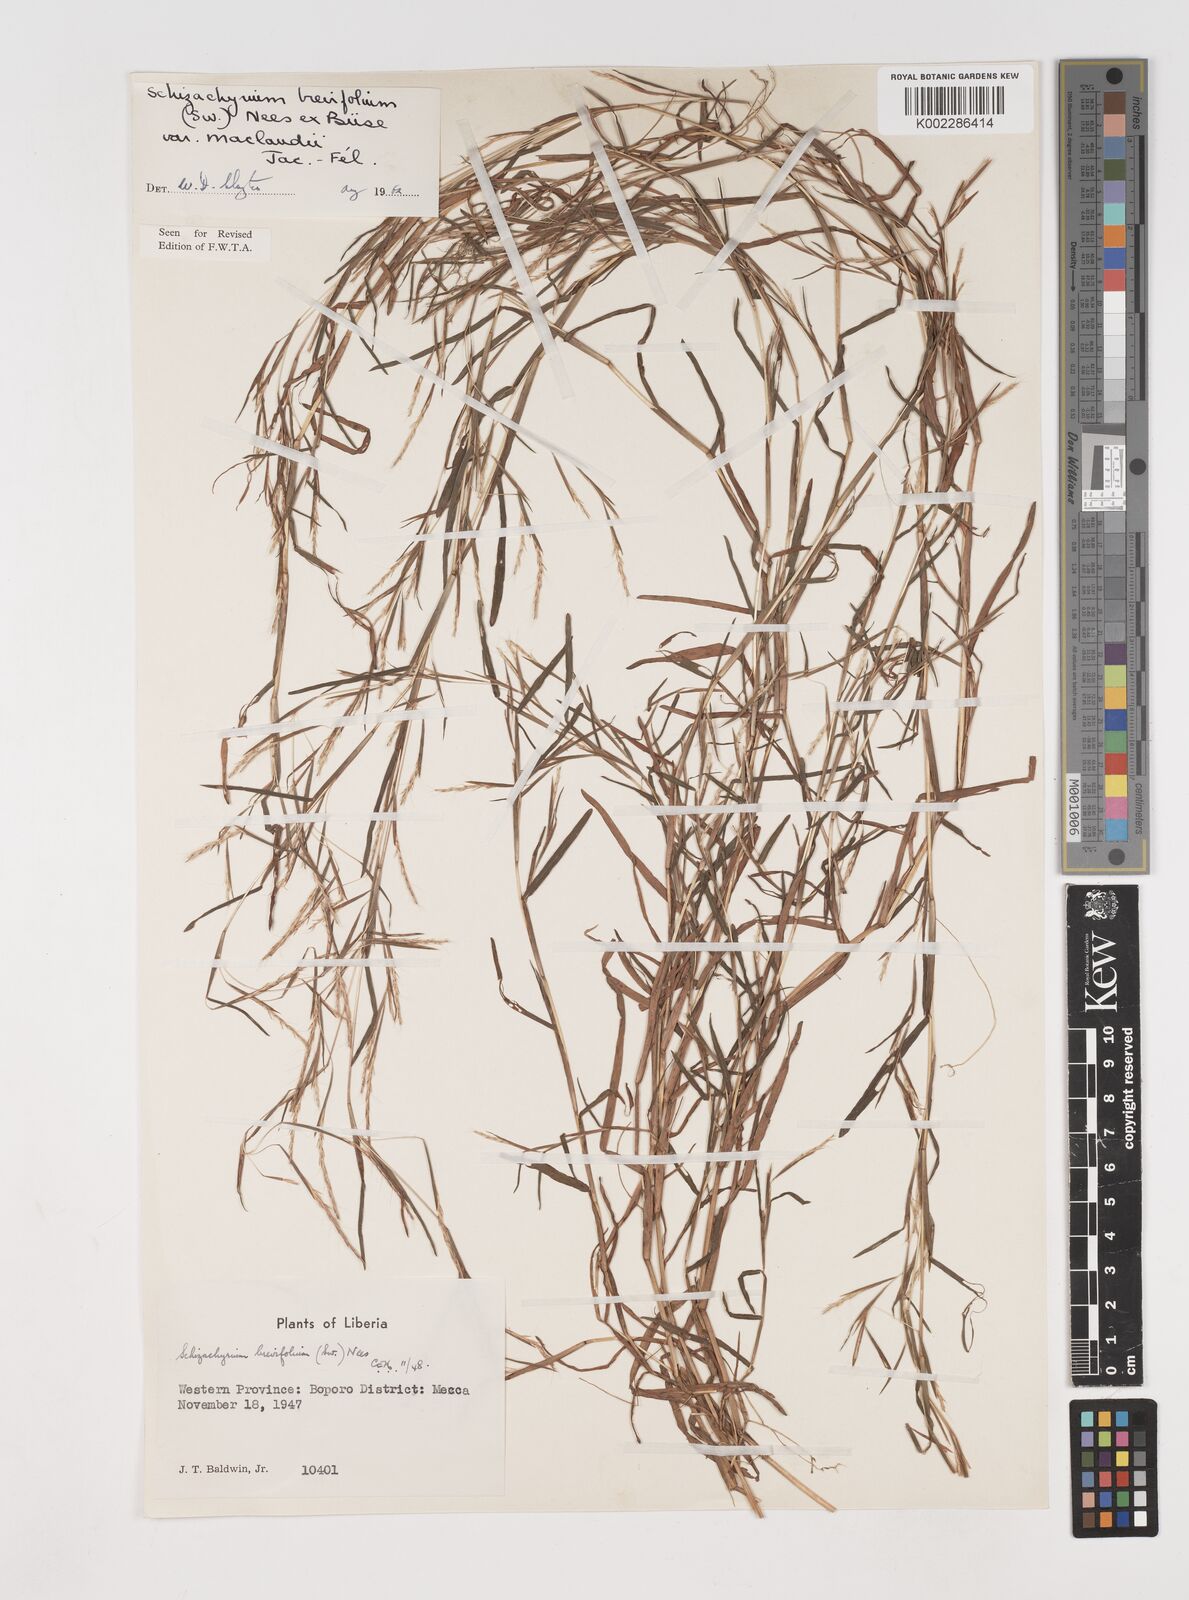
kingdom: Plantae
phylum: Tracheophyta
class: Liliopsida
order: Poales
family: Poaceae
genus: Schizachyrium
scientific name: Schizachyrium maclaudii
